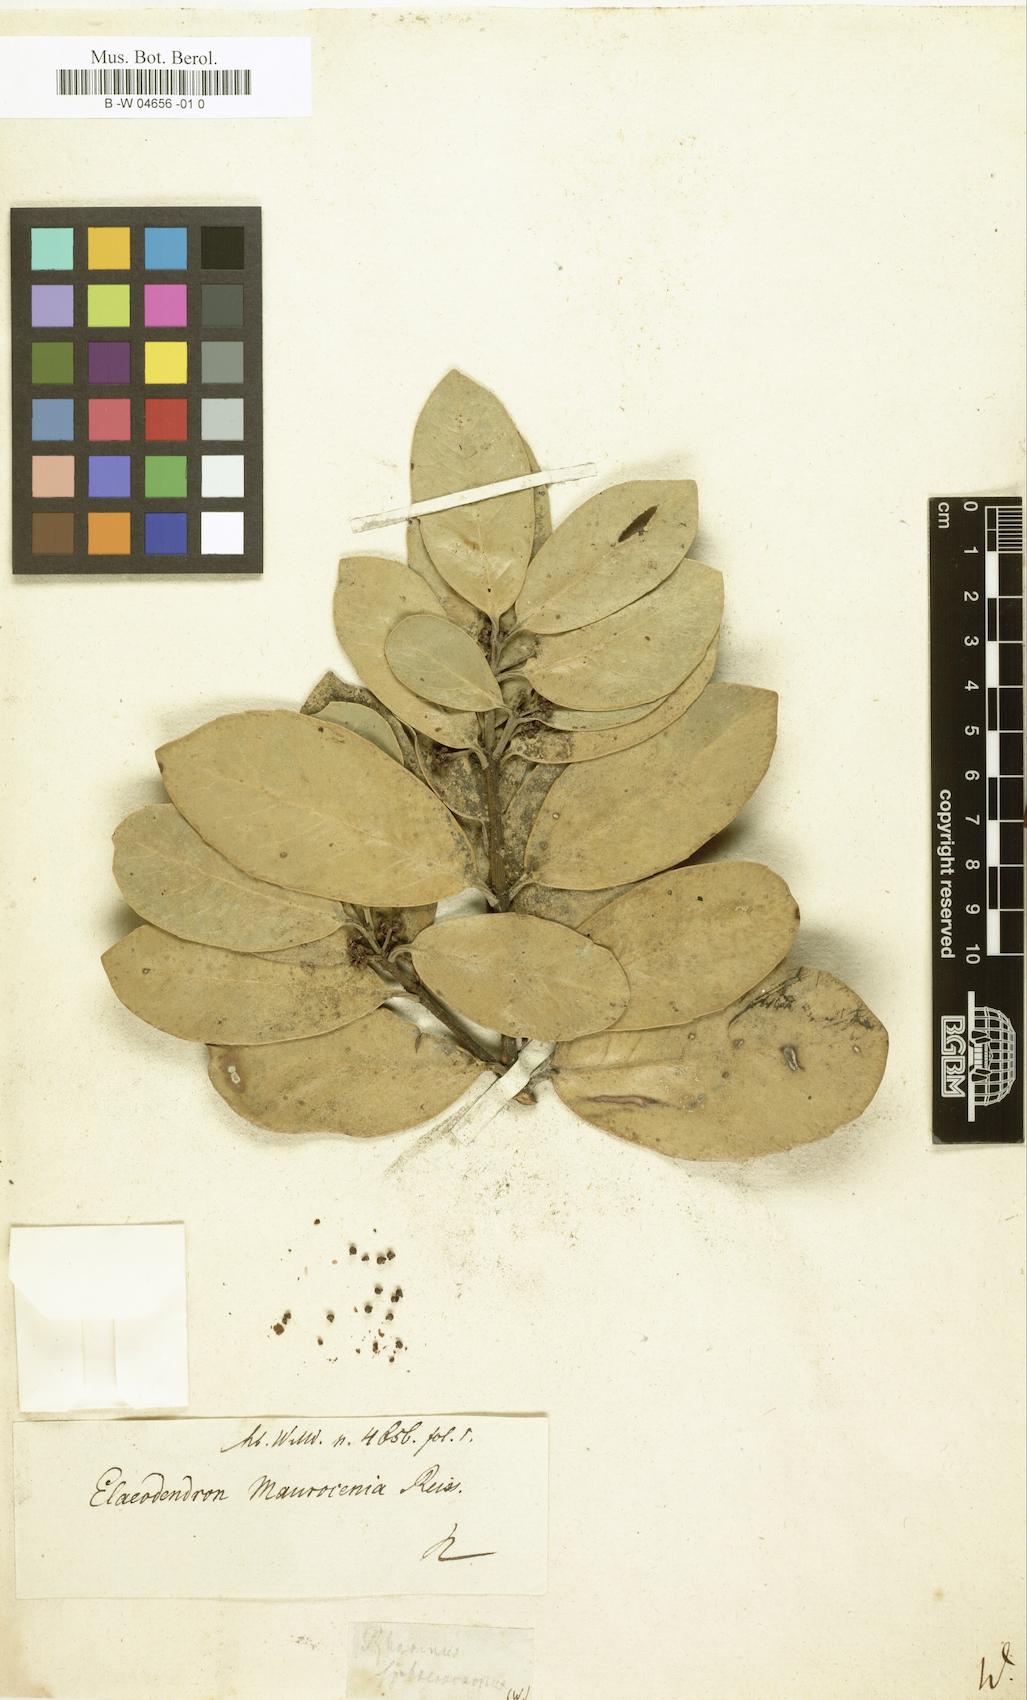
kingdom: Plantae
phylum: Tracheophyta
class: Magnoliopsida
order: Rosales
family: Rhamnaceae
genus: Rhamnus
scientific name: Rhamnus
